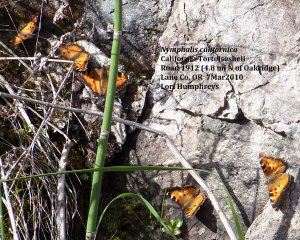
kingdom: Animalia
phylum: Arthropoda
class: Insecta
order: Lepidoptera
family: Nymphalidae
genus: Nymphalis
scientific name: Nymphalis californica
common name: California Tortoiseshell
